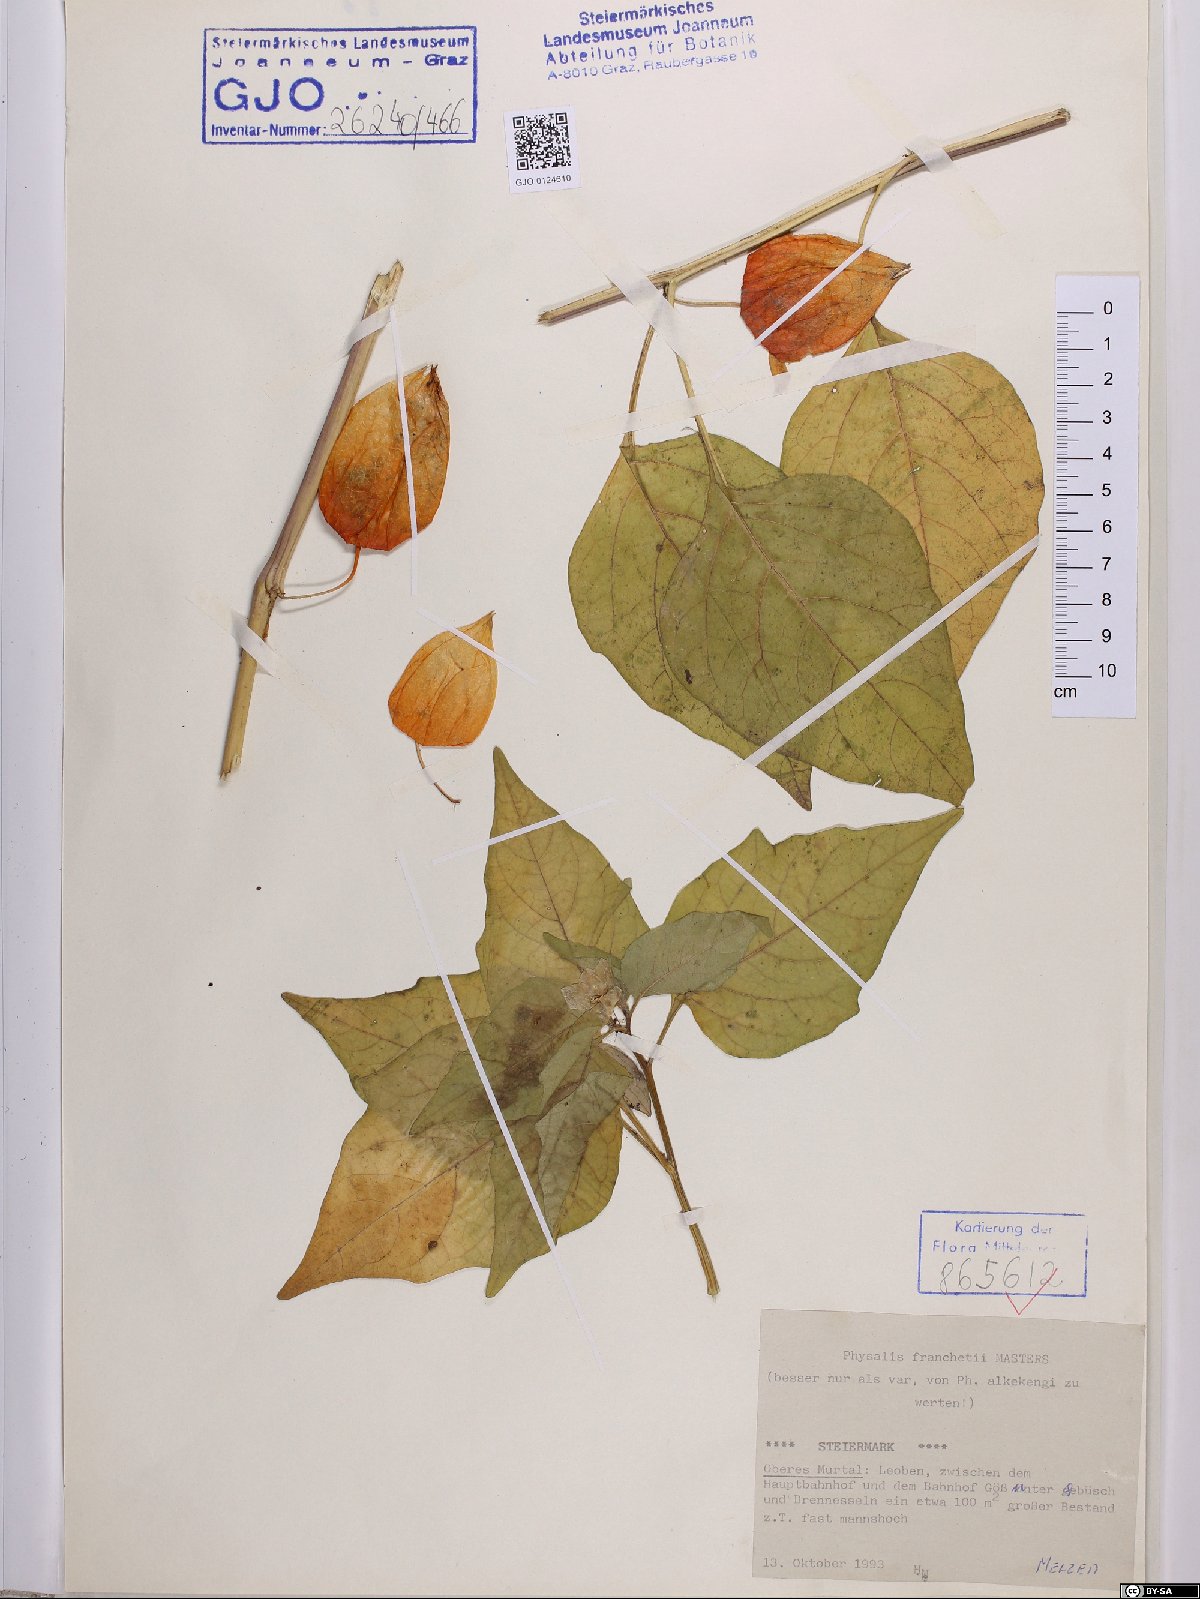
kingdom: Plantae
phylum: Tracheophyta
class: Magnoliopsida
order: Solanales
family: Solanaceae
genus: Alkekengi
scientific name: Alkekengi officinarum
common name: Japanese-lantern
